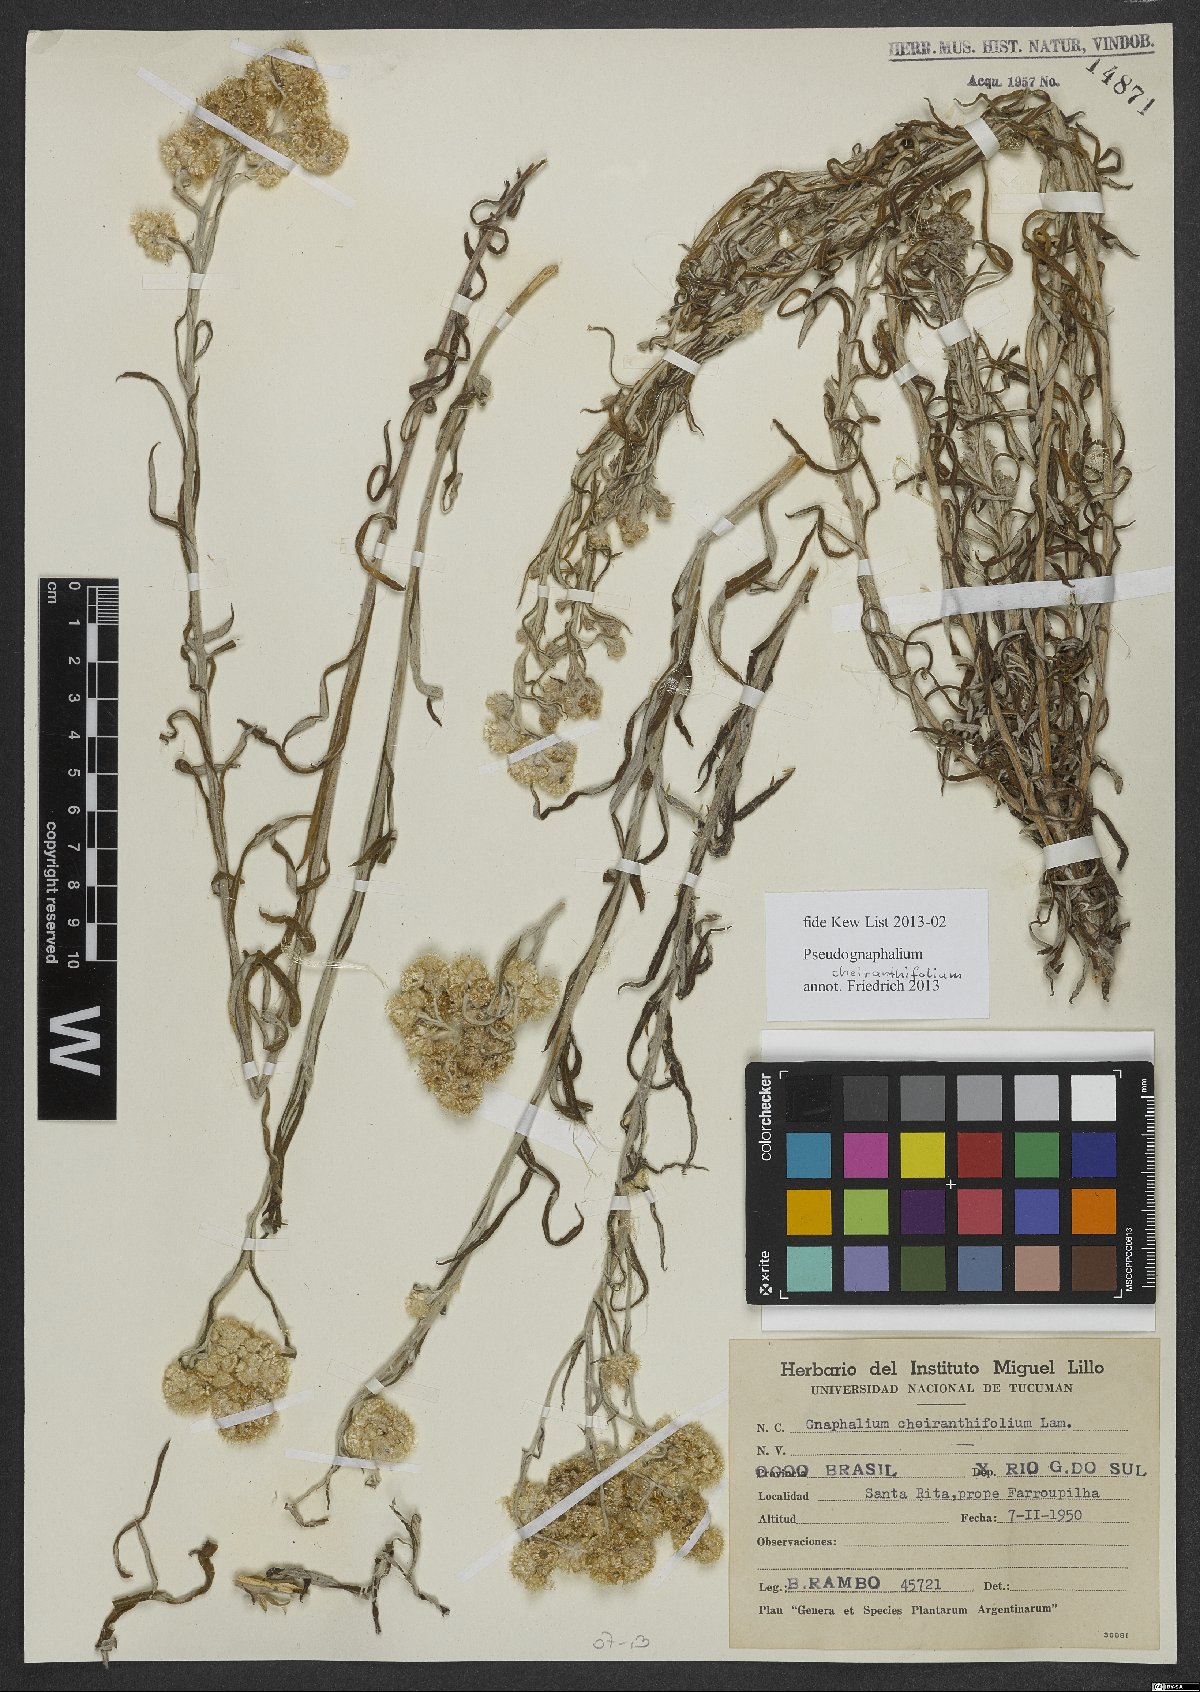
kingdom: Plantae
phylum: Tracheophyta
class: Magnoliopsida
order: Asterales
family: Asteraceae
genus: Pseudognaphalium
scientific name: Pseudognaphalium cheiranthifolium
